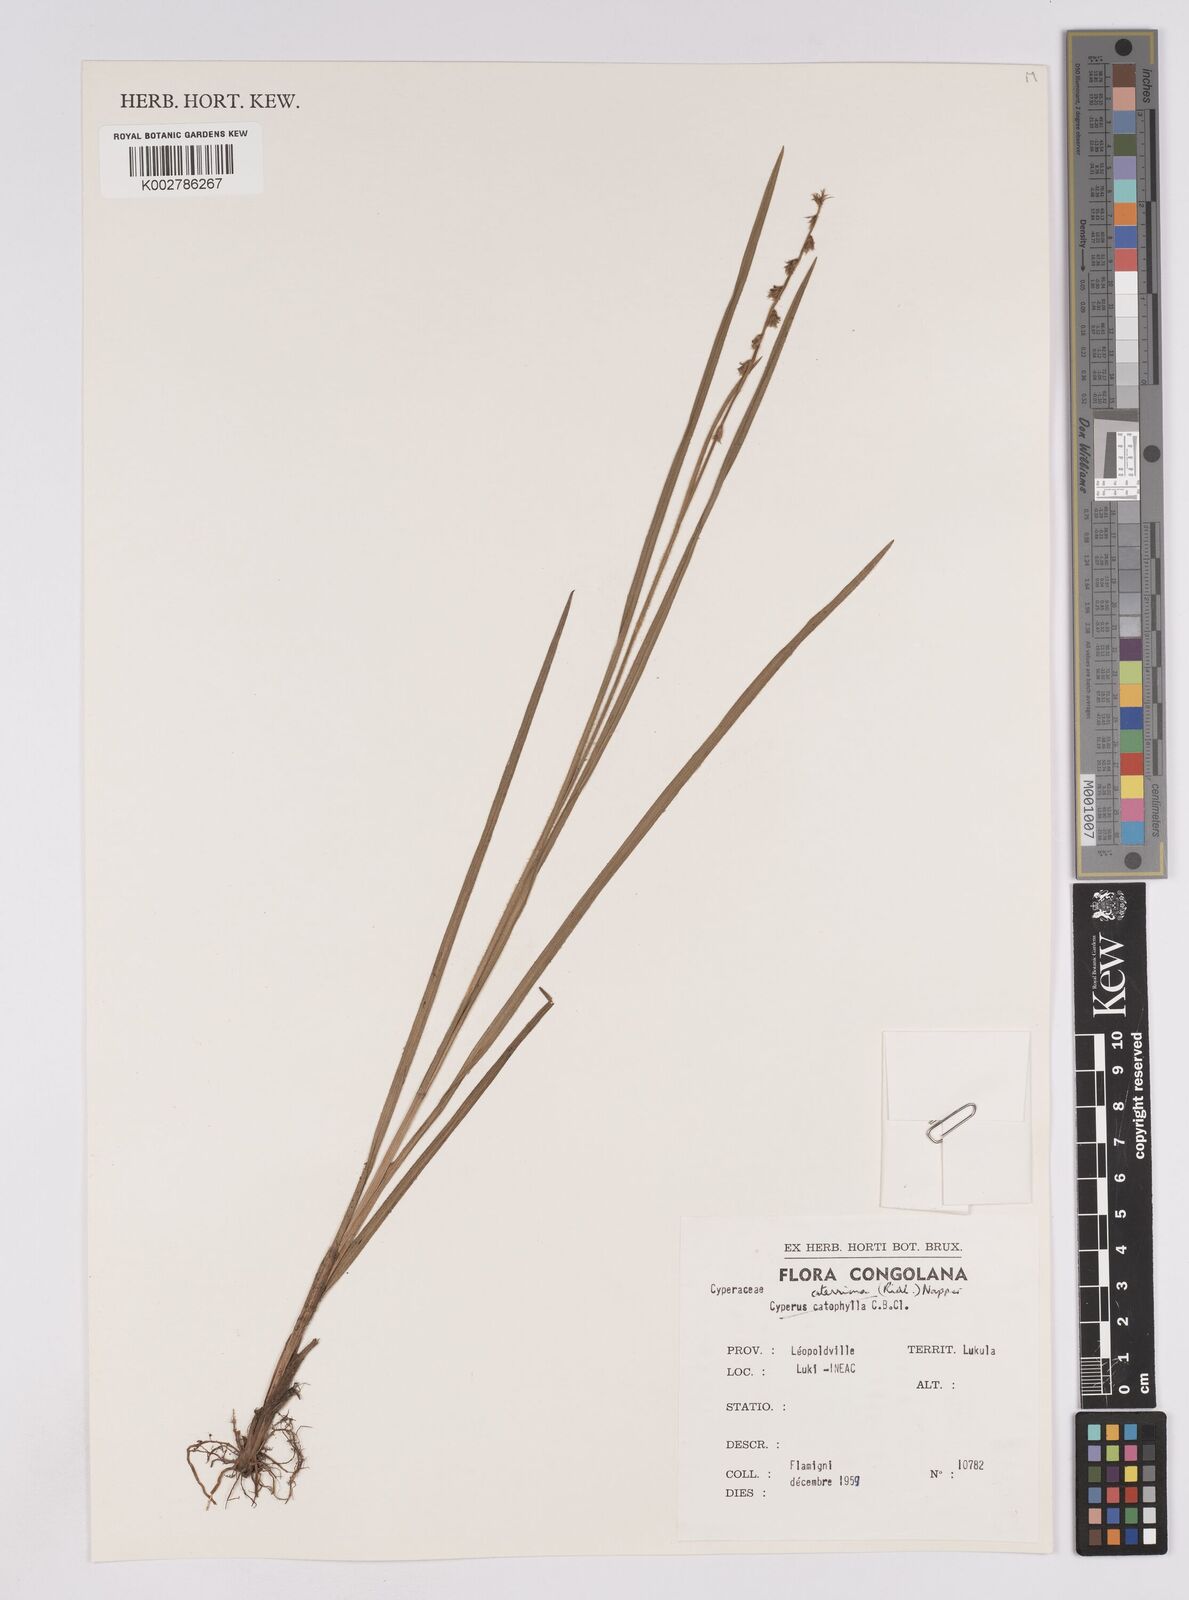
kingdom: Plantae
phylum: Tracheophyta
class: Liliopsida
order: Poales
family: Cyperaceae
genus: Scleria
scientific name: Scleria catophylla
